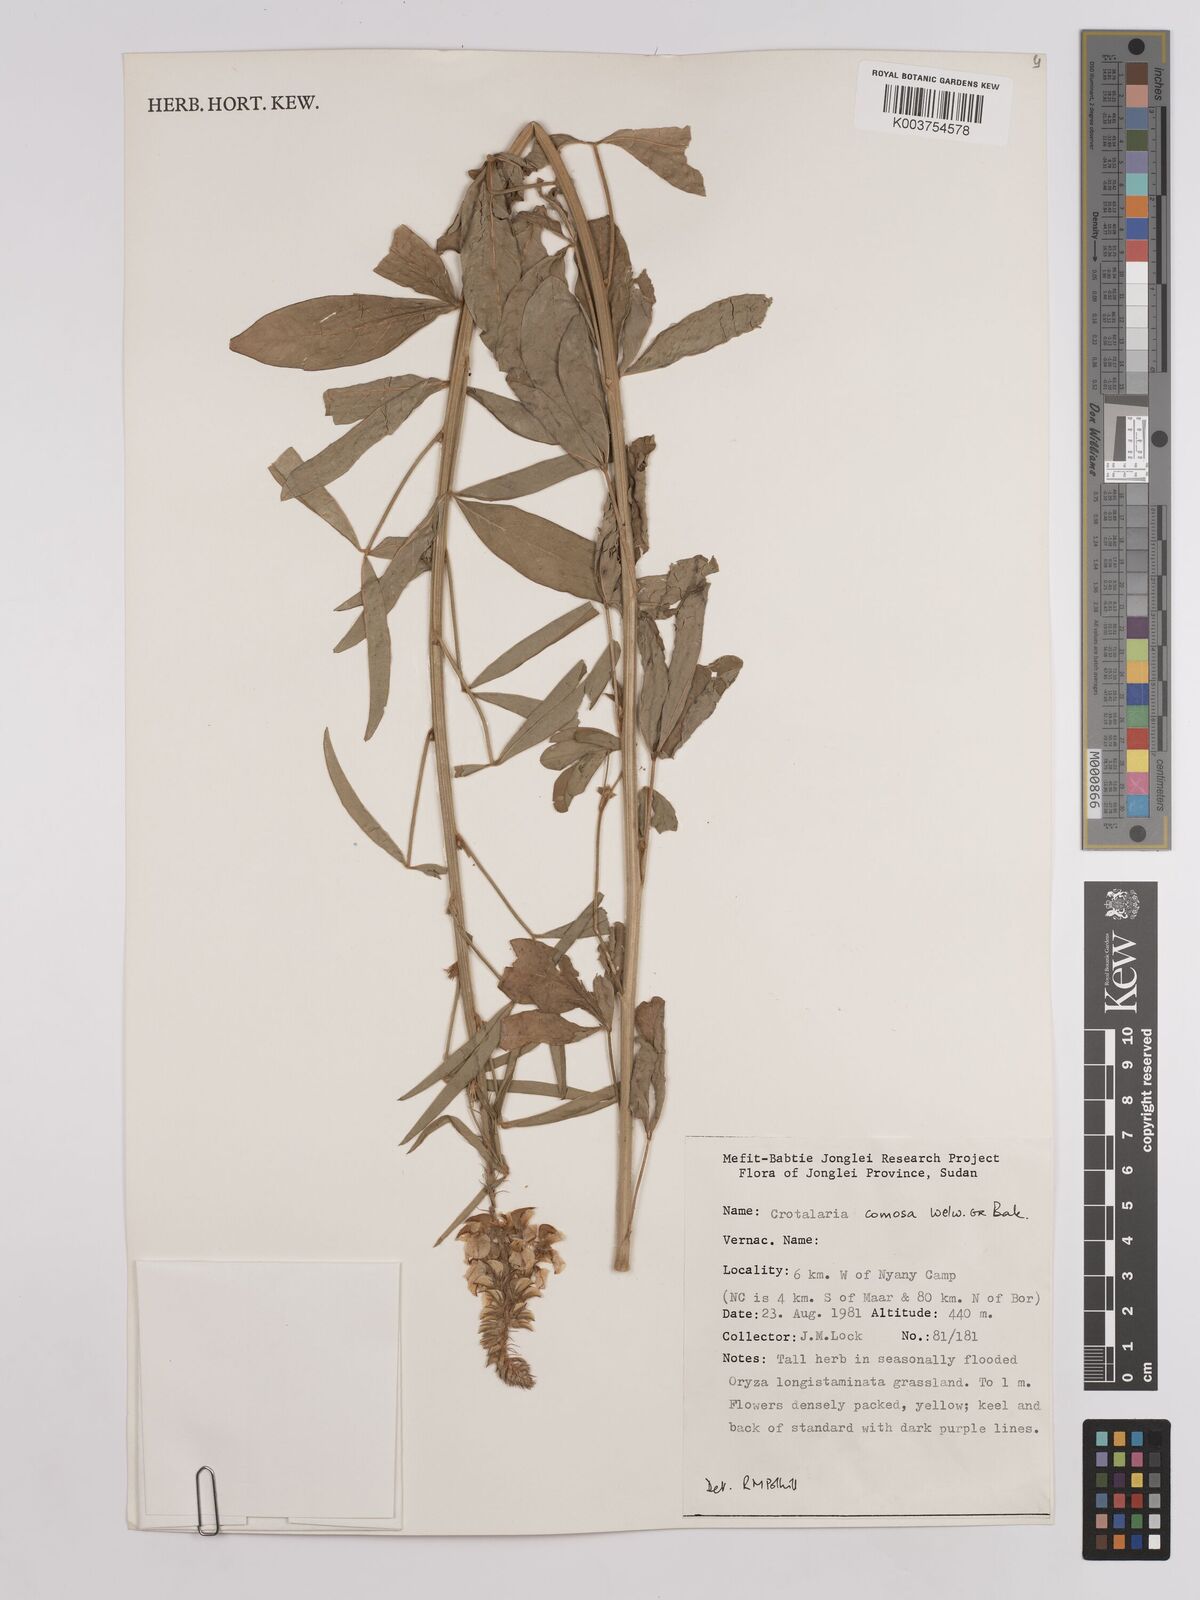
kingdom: Plantae
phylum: Tracheophyta
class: Magnoliopsida
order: Fabales
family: Fabaceae
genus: Crotalaria
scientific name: Crotalaria comosa
